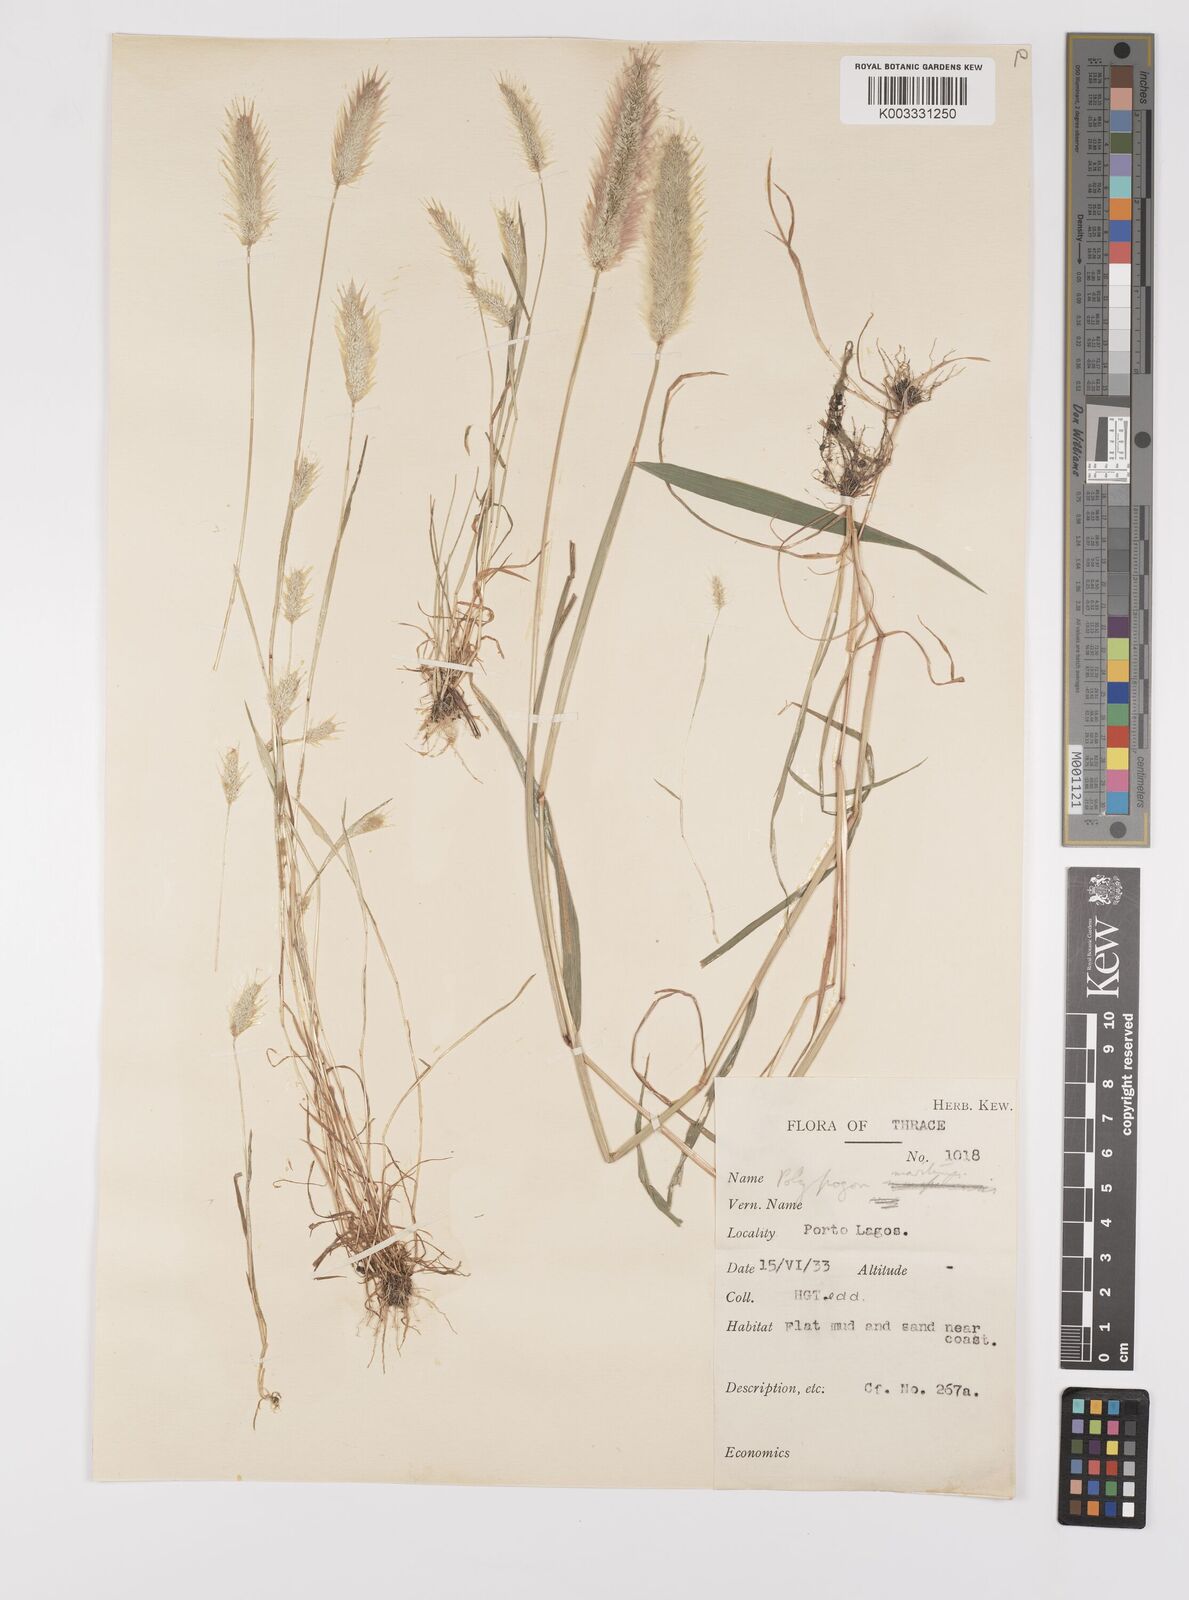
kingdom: Plantae
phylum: Tracheophyta
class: Liliopsida
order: Poales
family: Poaceae
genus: Polypogon
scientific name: Polypogon maritimus
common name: Mediterranean rabbitsfoot grass
